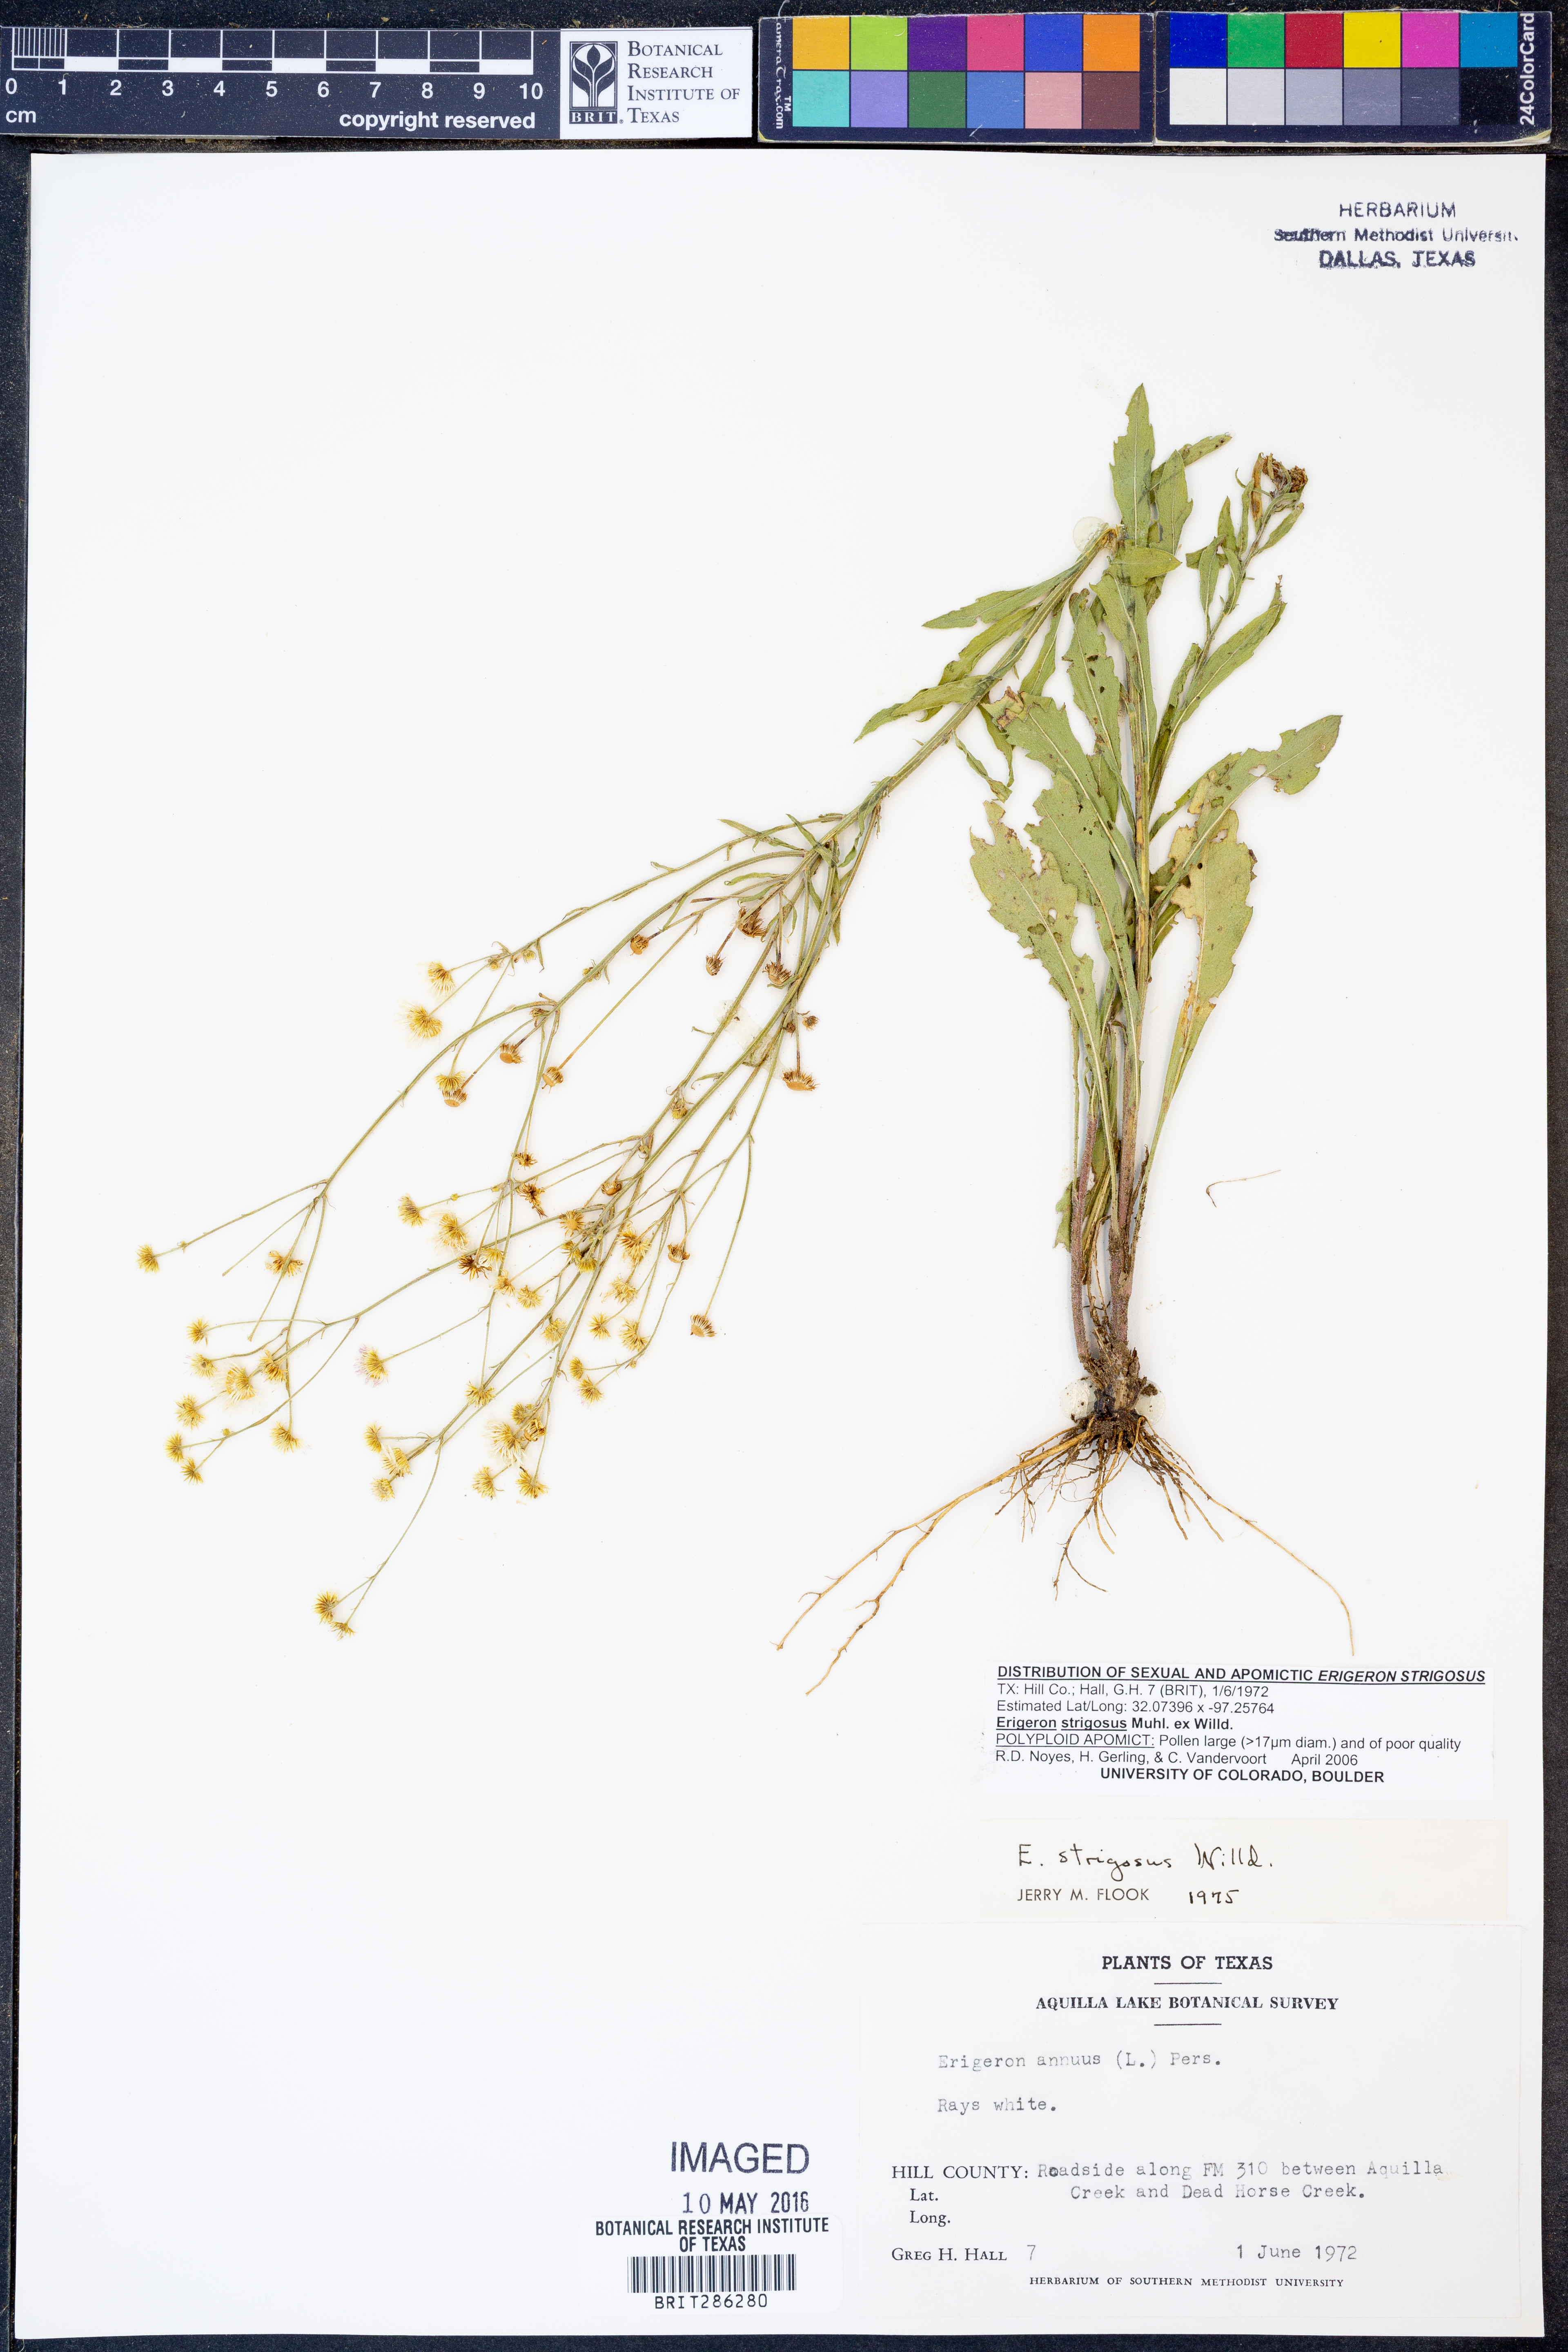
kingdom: Plantae
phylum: Tracheophyta
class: Magnoliopsida
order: Asterales
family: Asteraceae
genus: Erigeron
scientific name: Erigeron strigosus
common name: Common eastern fleabane
